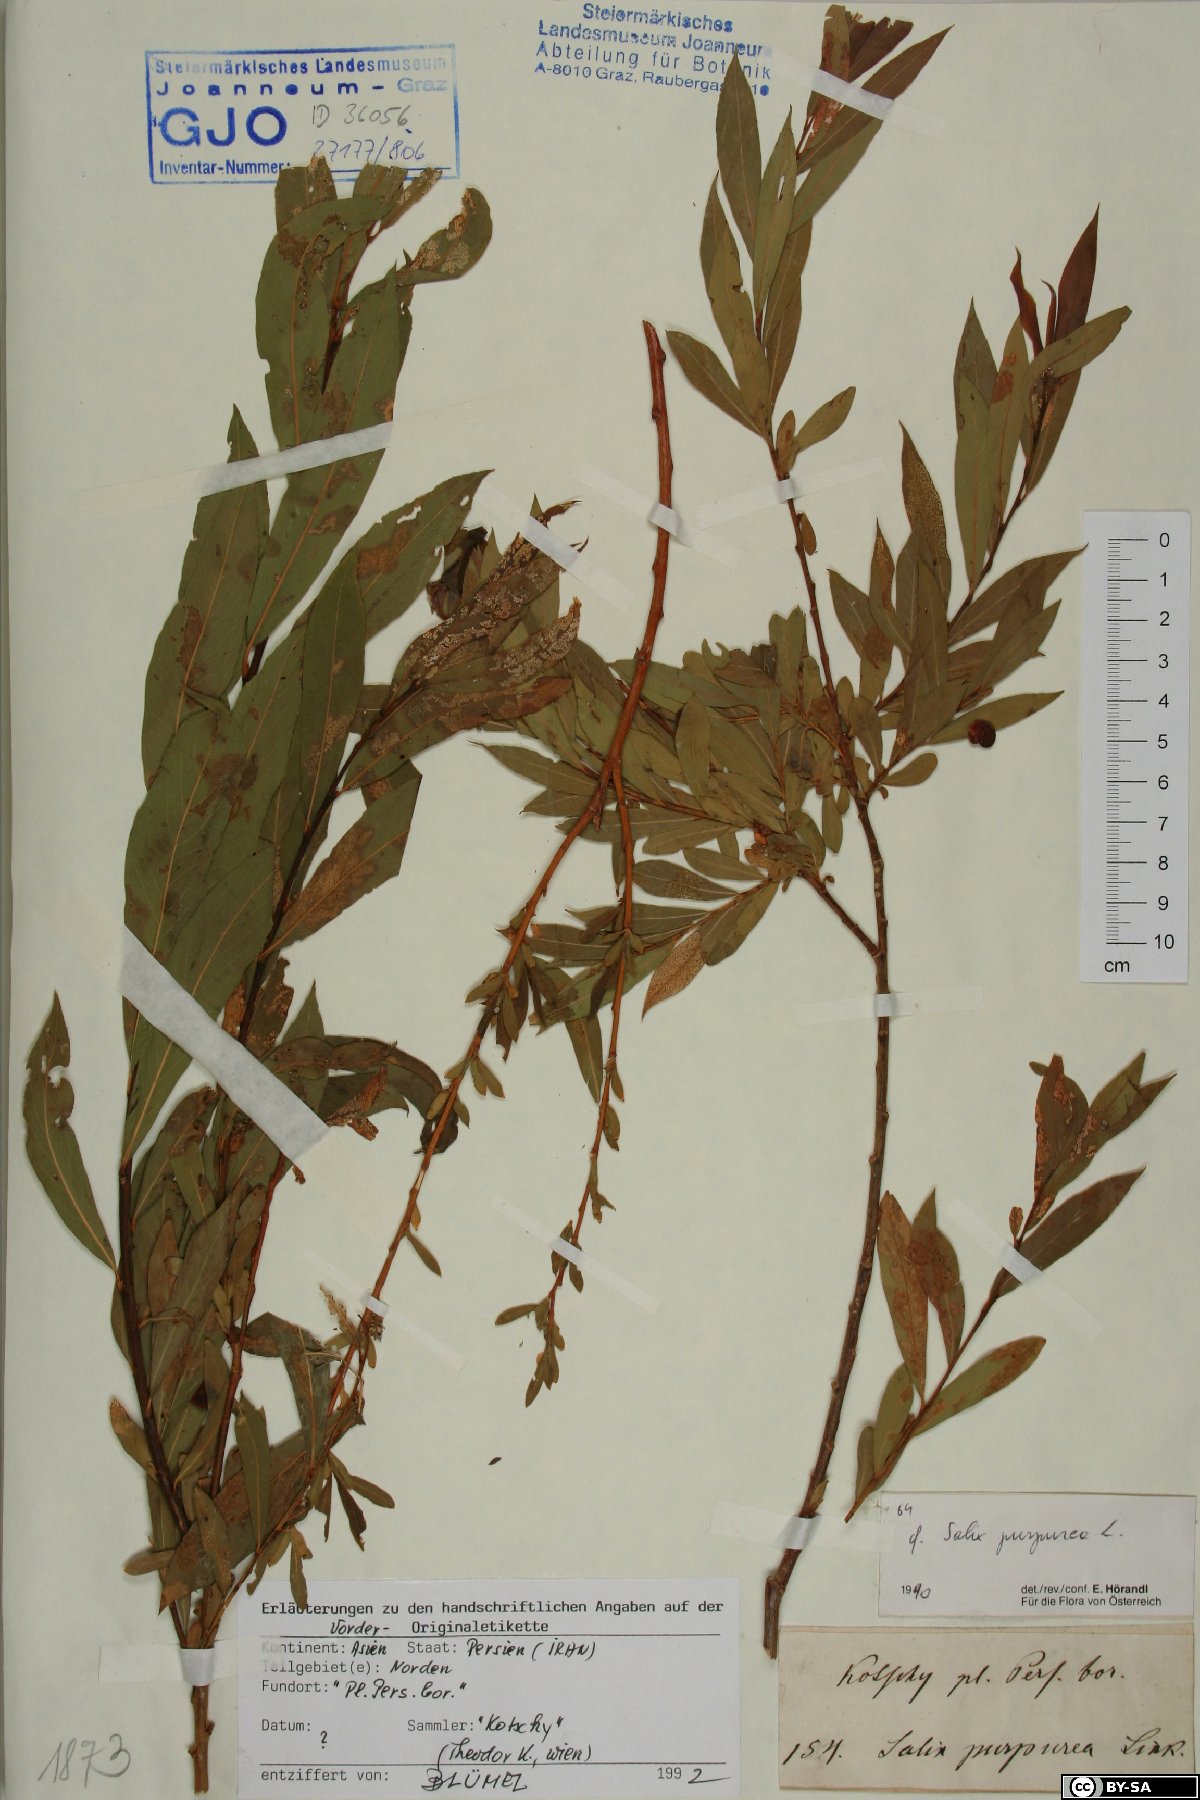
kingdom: Plantae
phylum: Tracheophyta
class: Magnoliopsida
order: Malpighiales
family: Salicaceae
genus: Salix
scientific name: Salix purpurea
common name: Purple willow
